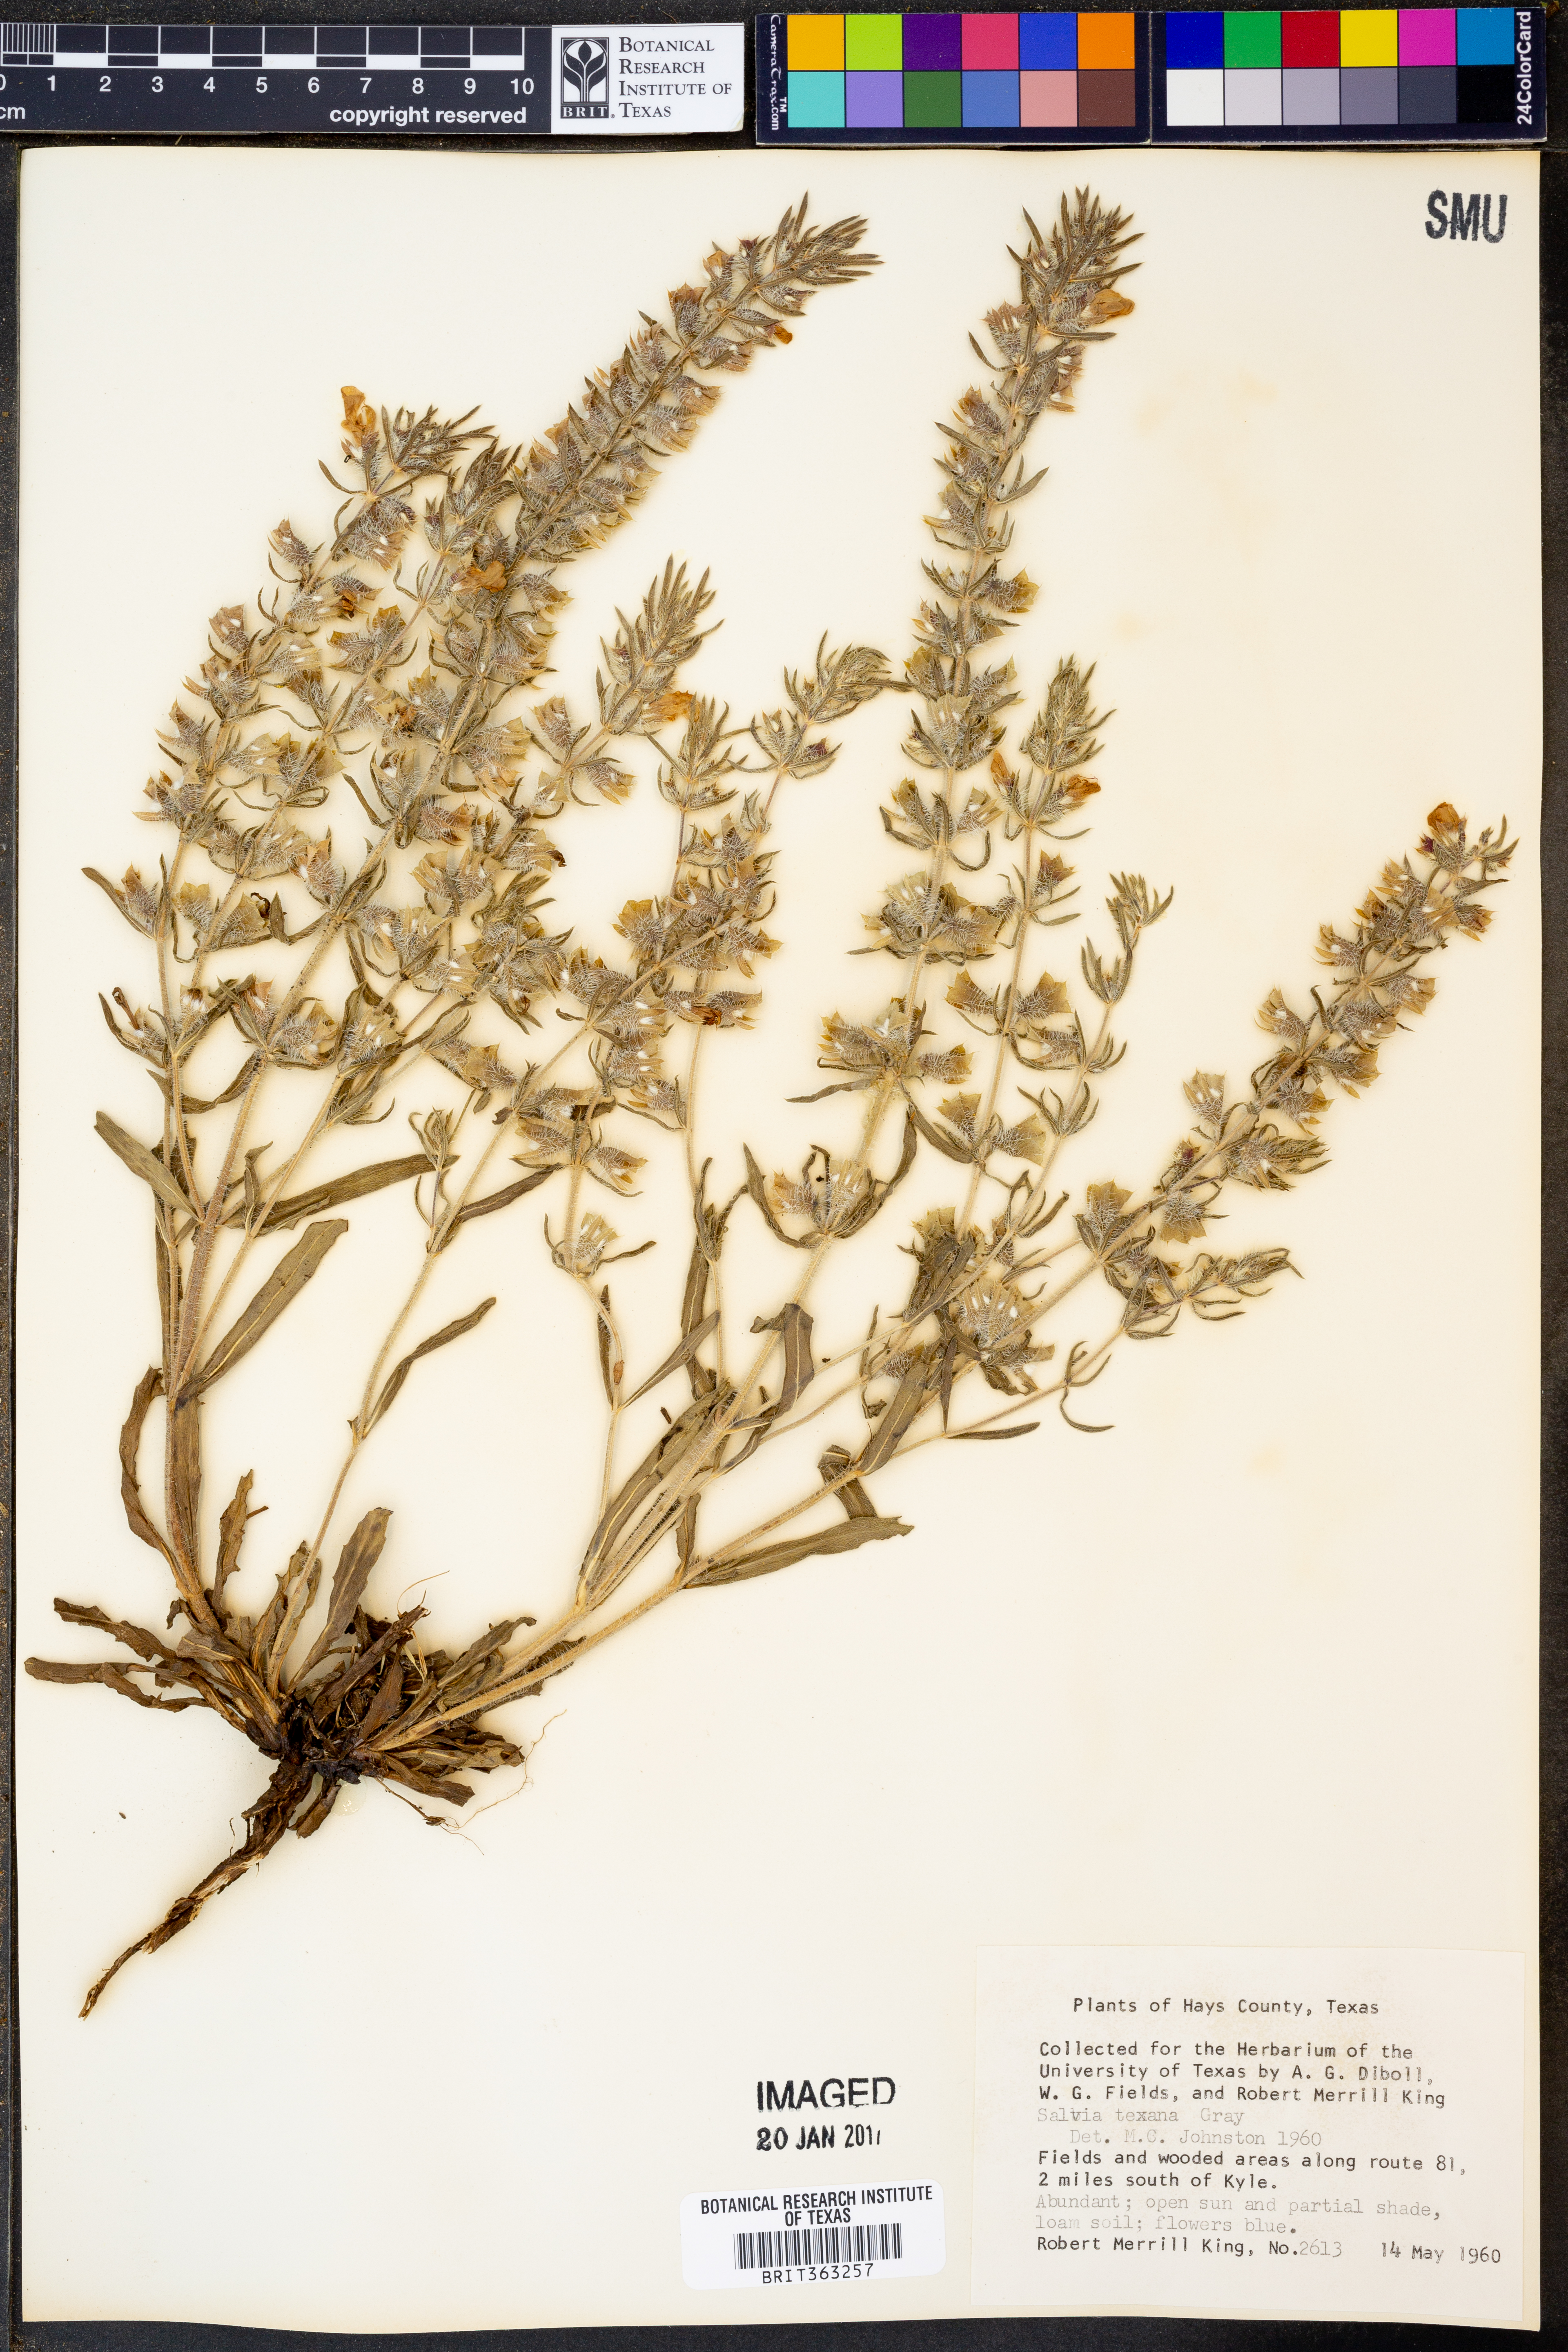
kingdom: Plantae
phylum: Tracheophyta
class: Magnoliopsida
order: Lamiales
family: Lamiaceae
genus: Salvia
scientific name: Salvia texana
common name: Texas sage
